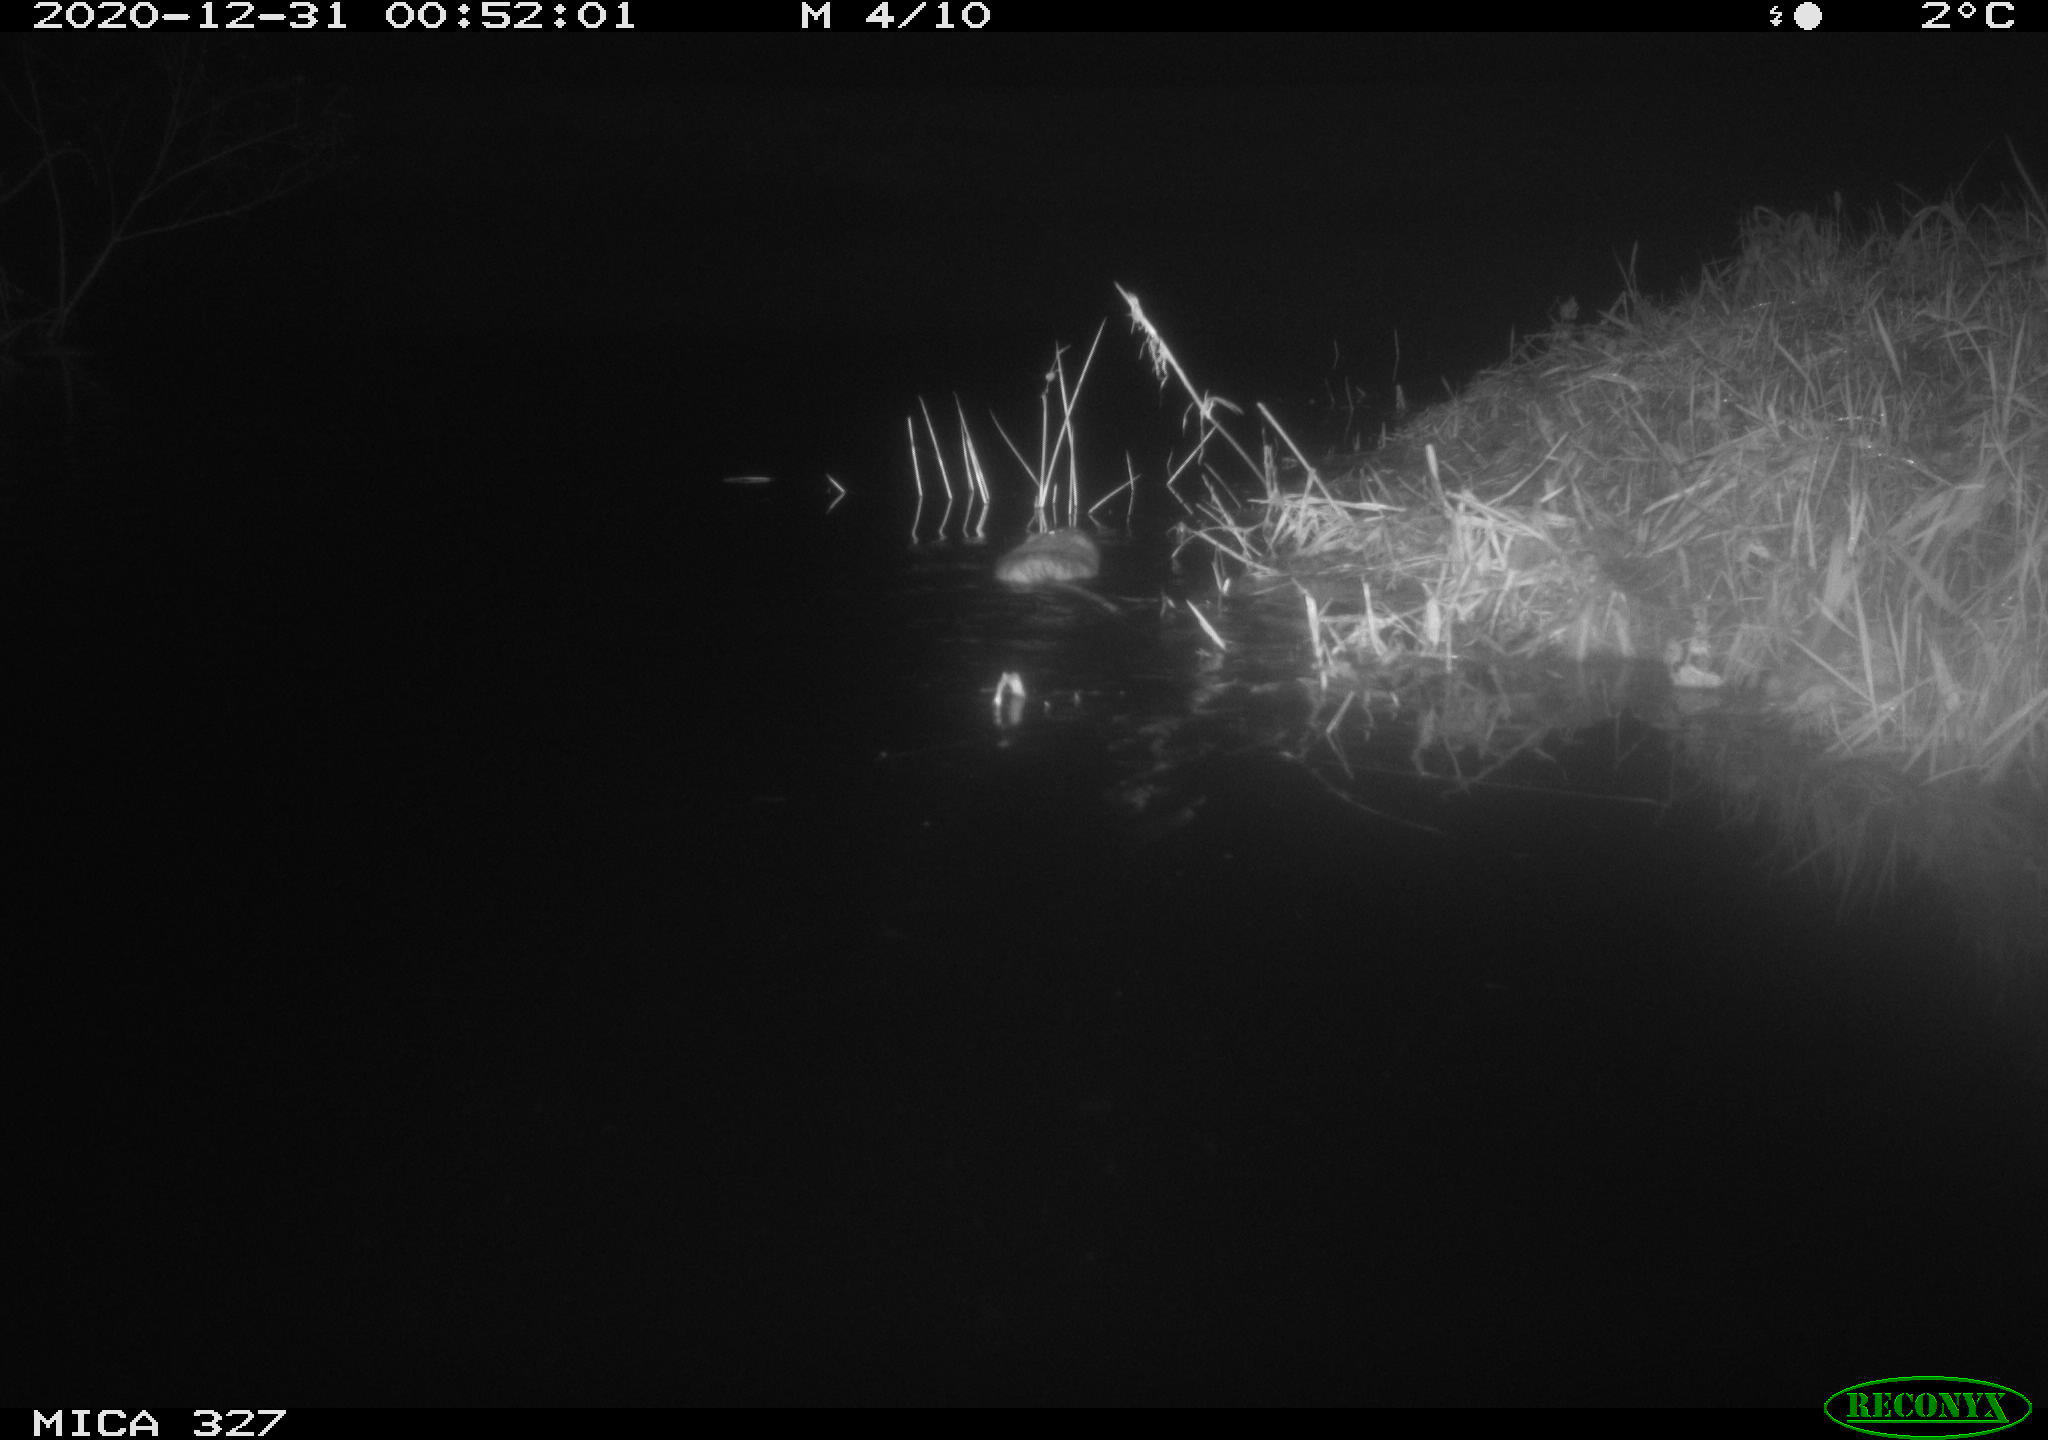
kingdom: Animalia
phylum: Chordata
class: Mammalia
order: Rodentia
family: Cricetidae
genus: Ondatra
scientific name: Ondatra zibethicus
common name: Muskrat
